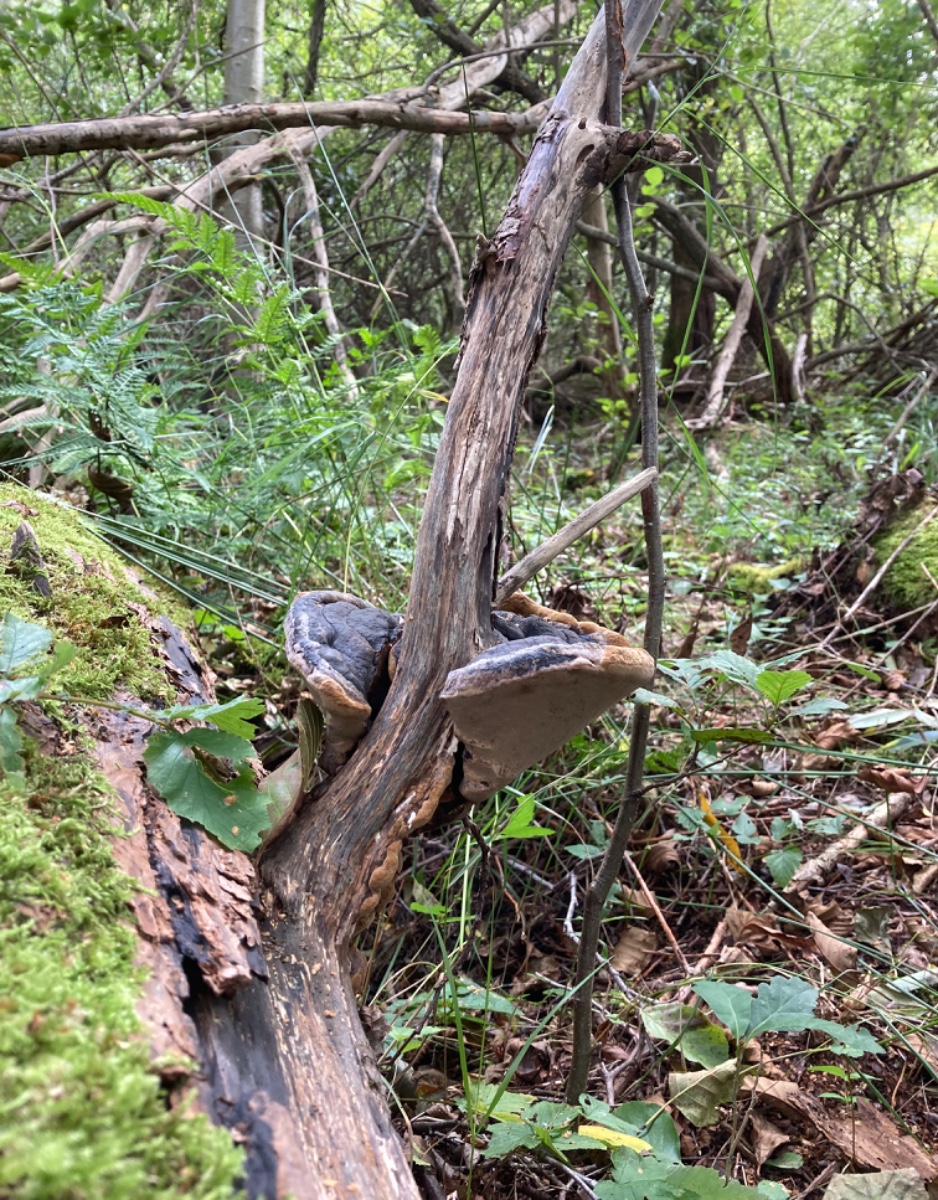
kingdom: Fungi
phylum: Basidiomycota
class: Agaricomycetes
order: Hymenochaetales
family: Hymenochaetaceae
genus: Phellinus
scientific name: Phellinus igniarius
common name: almindelig ildporesvamp
